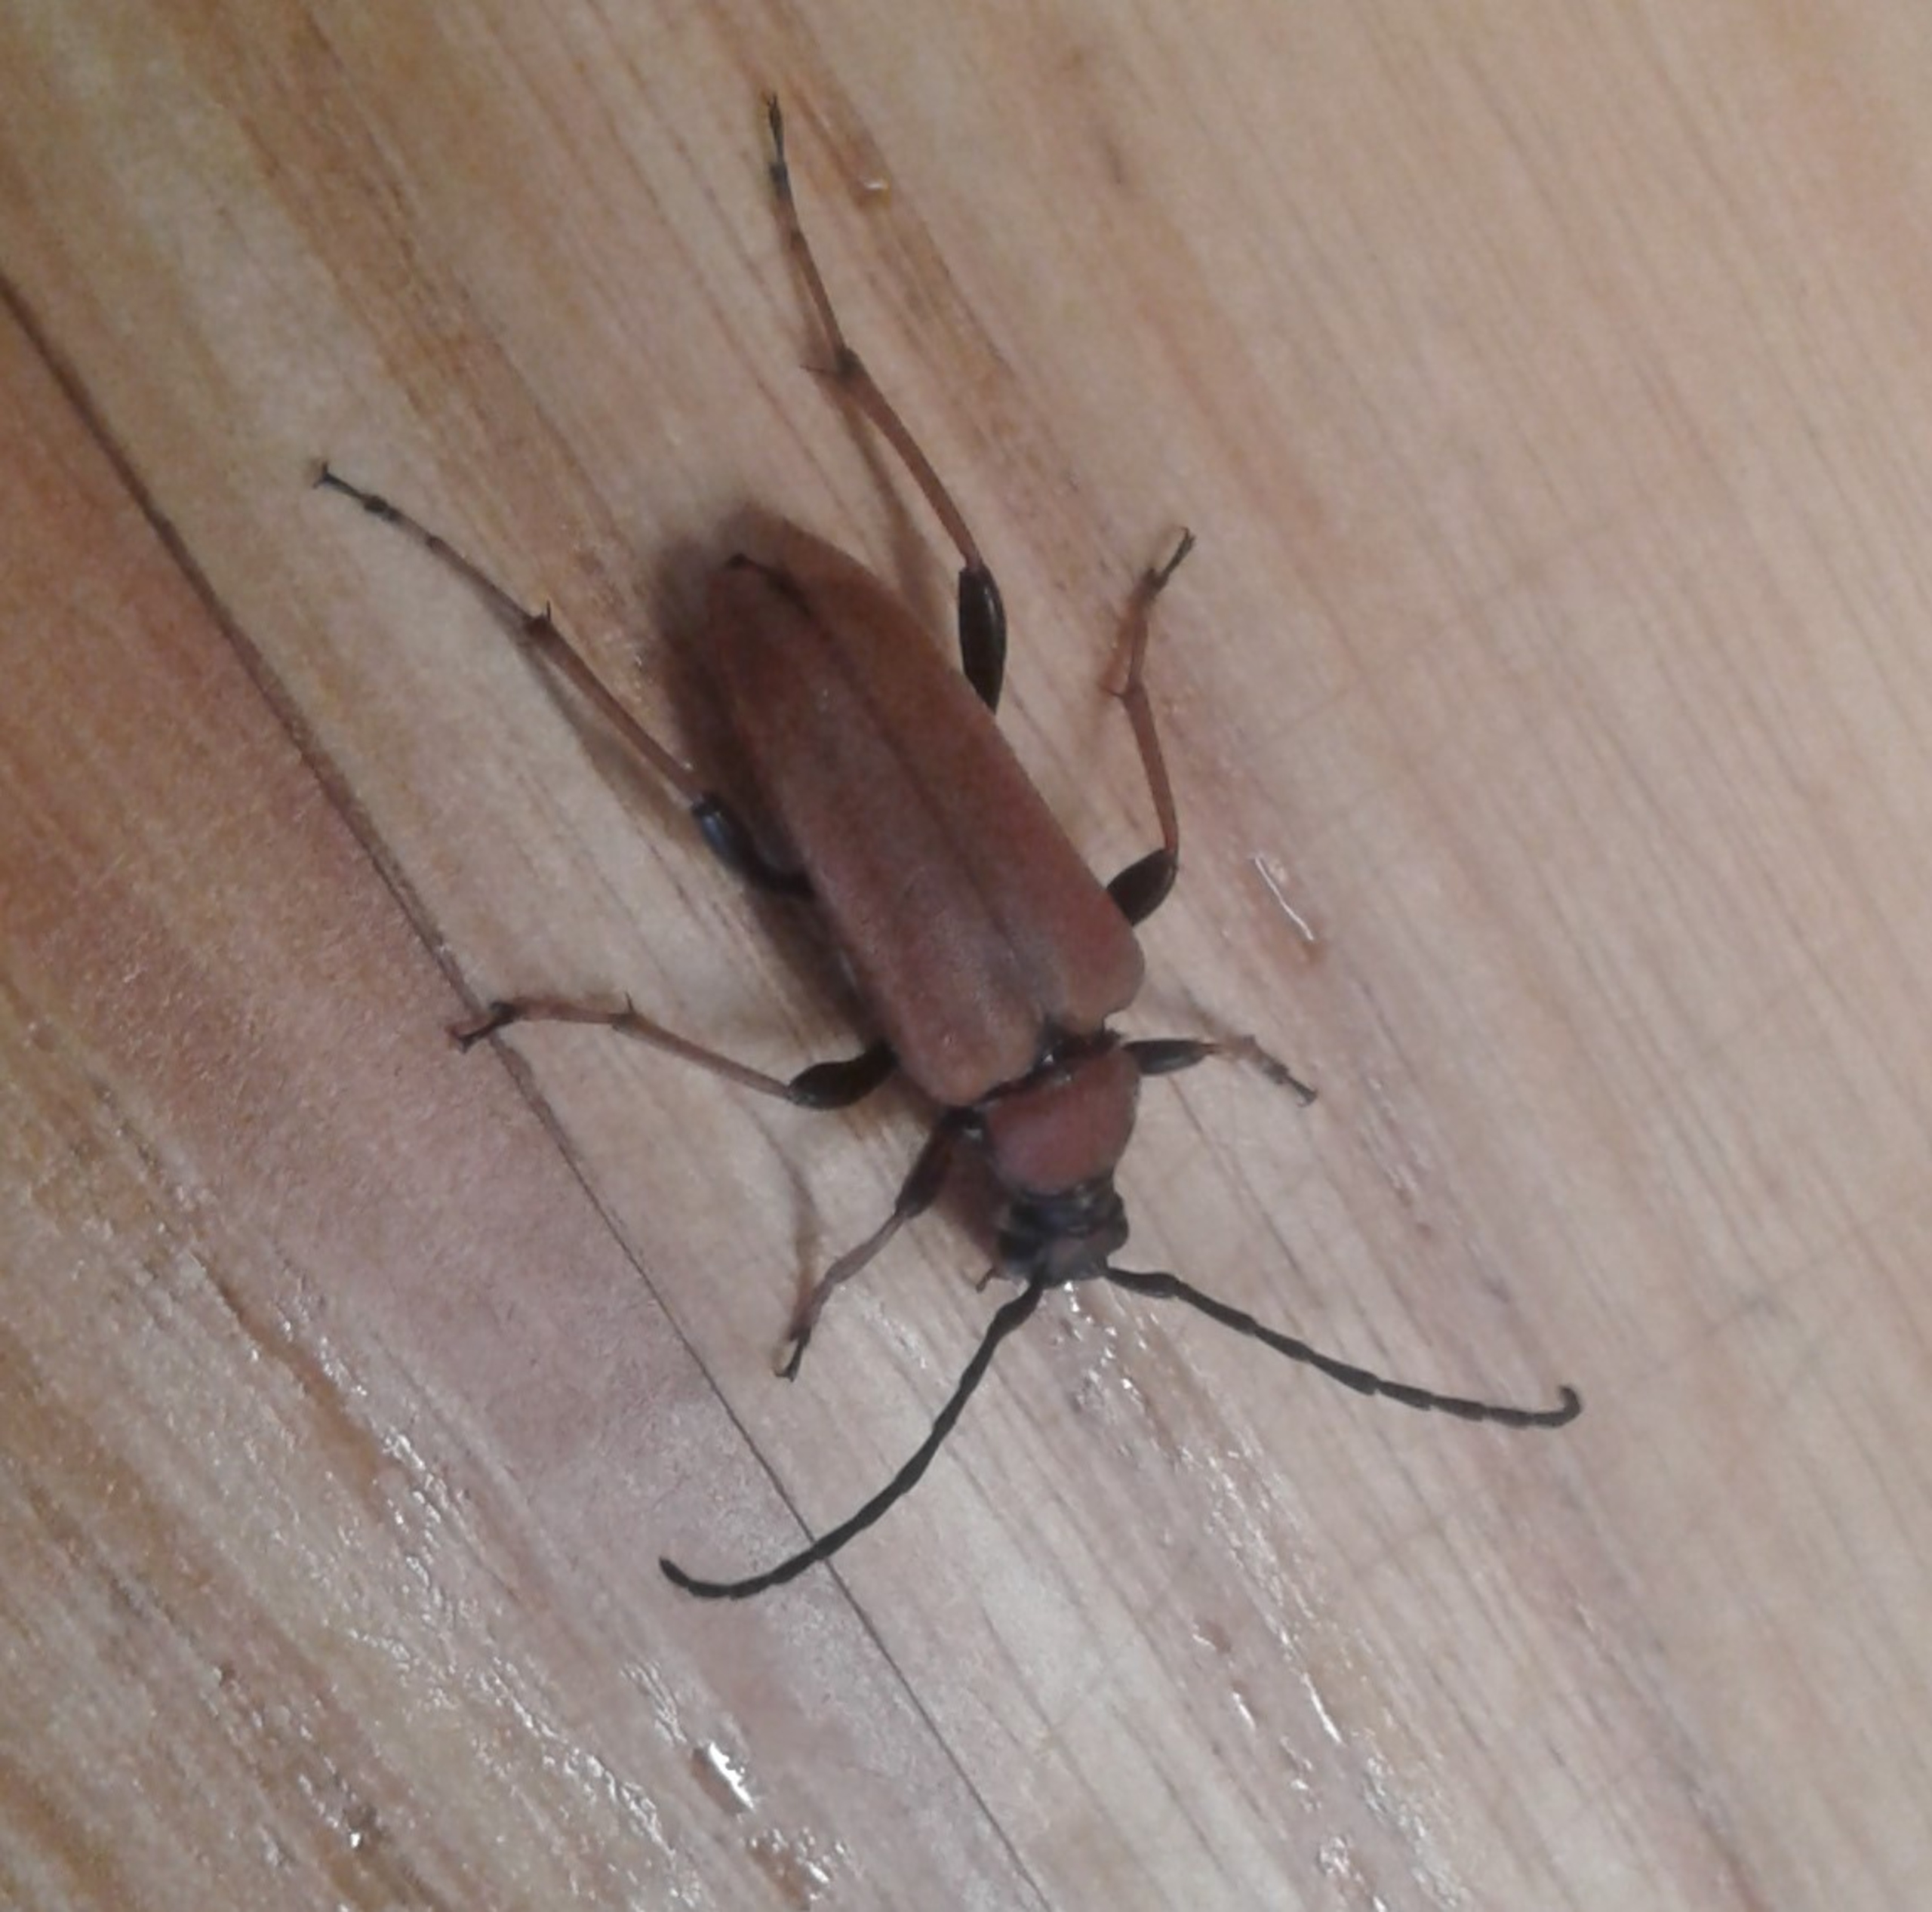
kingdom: Animalia
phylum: Arthropoda
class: Insecta
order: Coleoptera
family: Cerambycidae
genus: Stictoleptura
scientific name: Stictoleptura rubra
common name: Rød blomsterbuk
